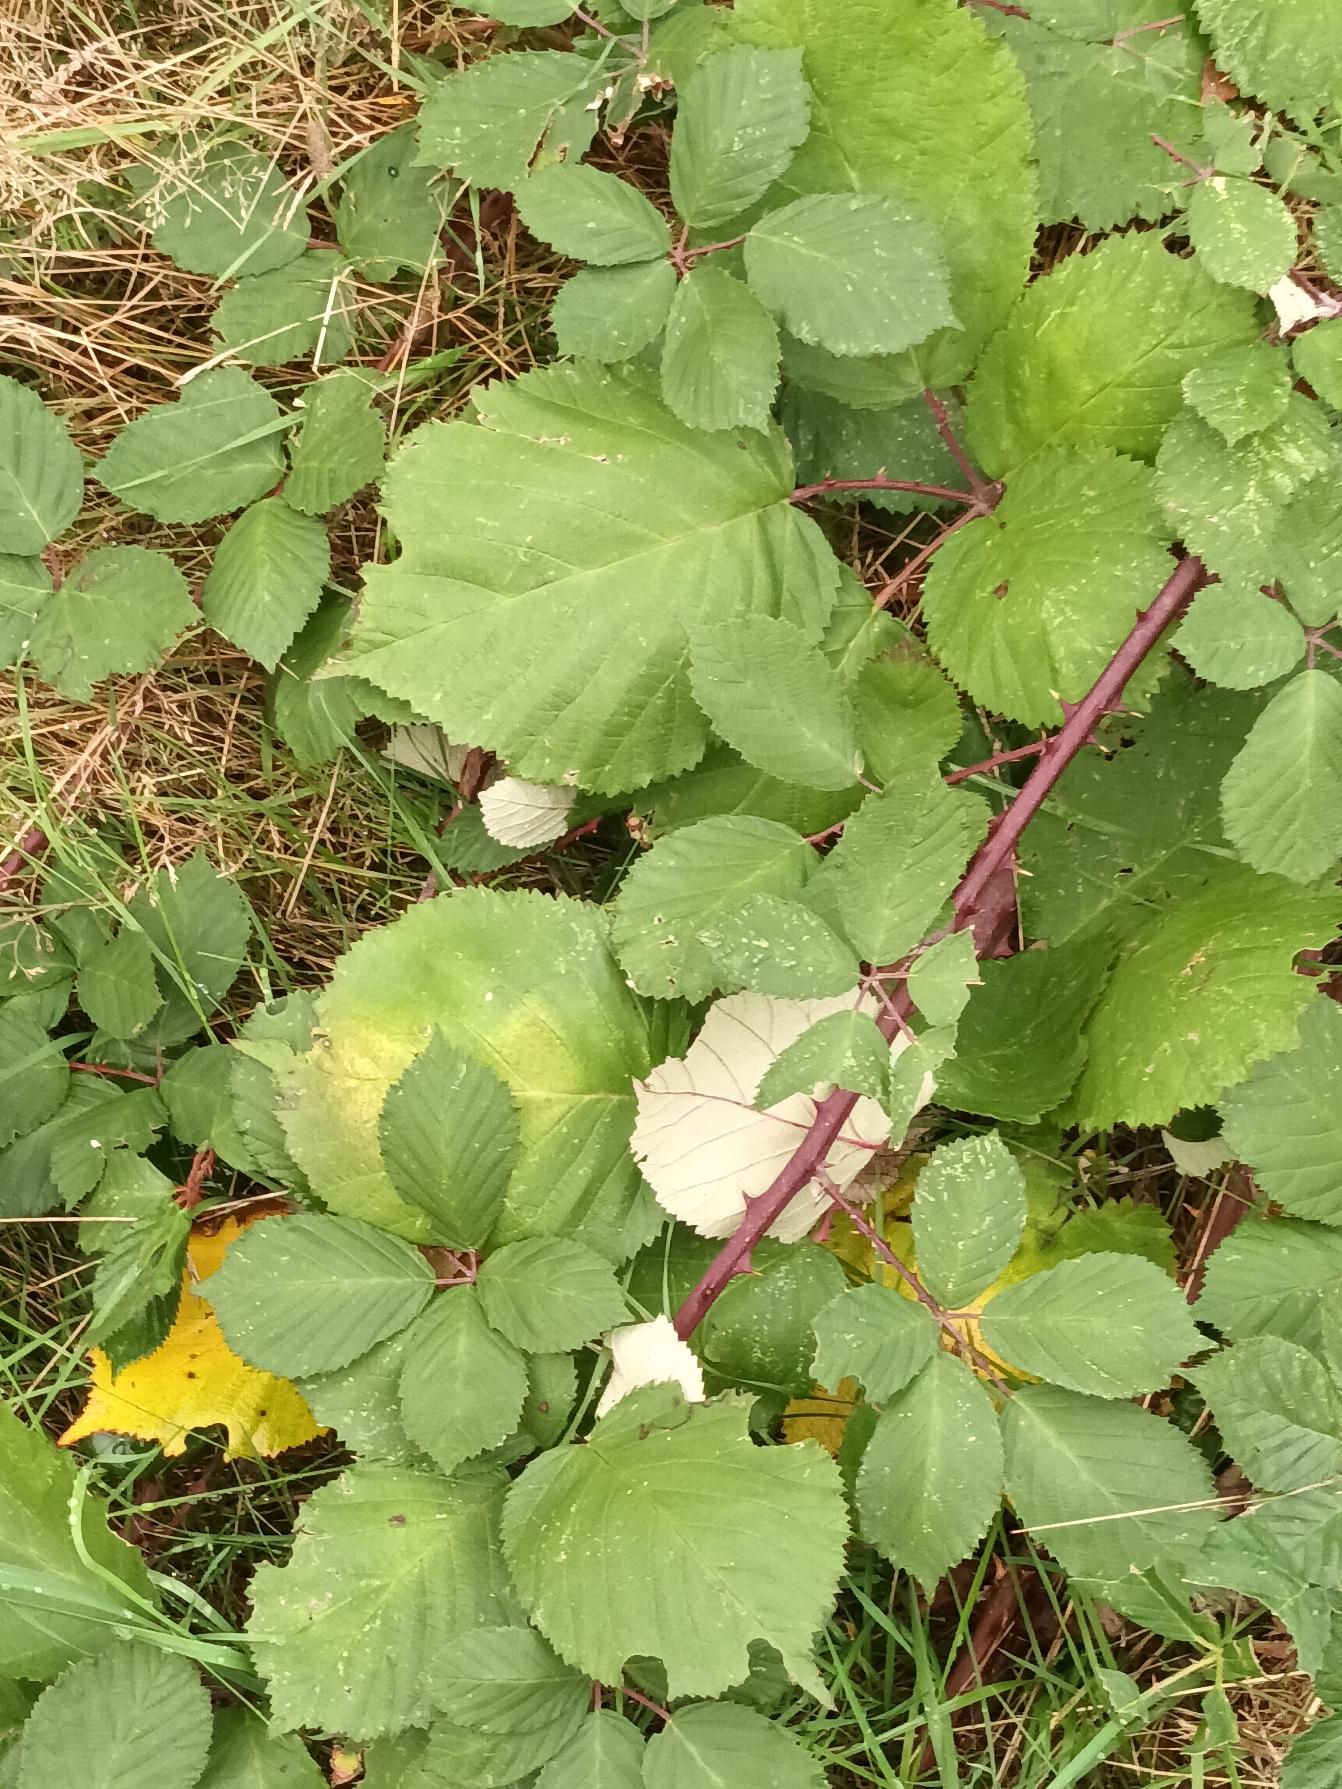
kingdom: Plantae
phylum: Tracheophyta
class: Magnoliopsida
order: Rosales
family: Rosaceae
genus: Rubus
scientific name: Rubus armeniacus
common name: Armensk brombær
